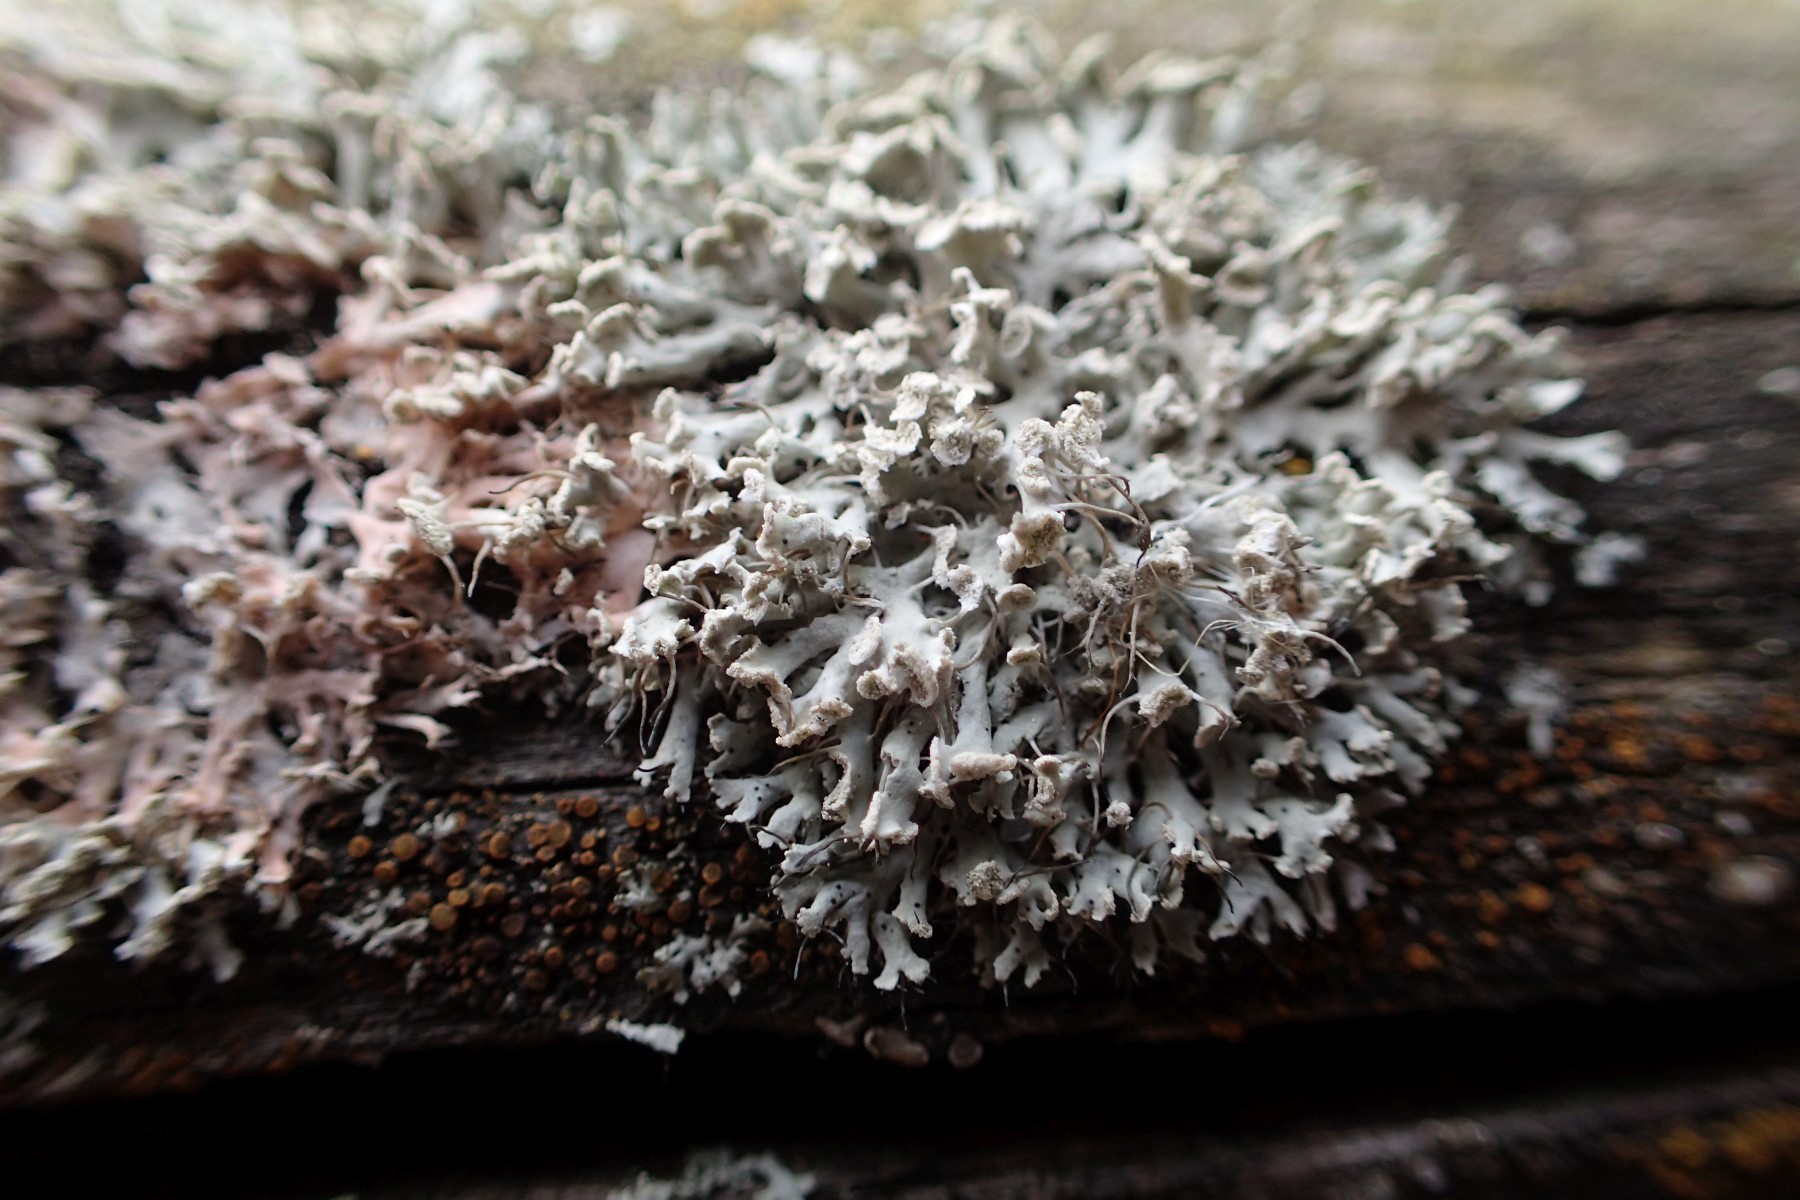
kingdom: Fungi
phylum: Ascomycota
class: Lecanoromycetes
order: Caliciales
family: Physciaceae
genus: Physcia
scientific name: Physcia tenella
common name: spæd rosetlav
